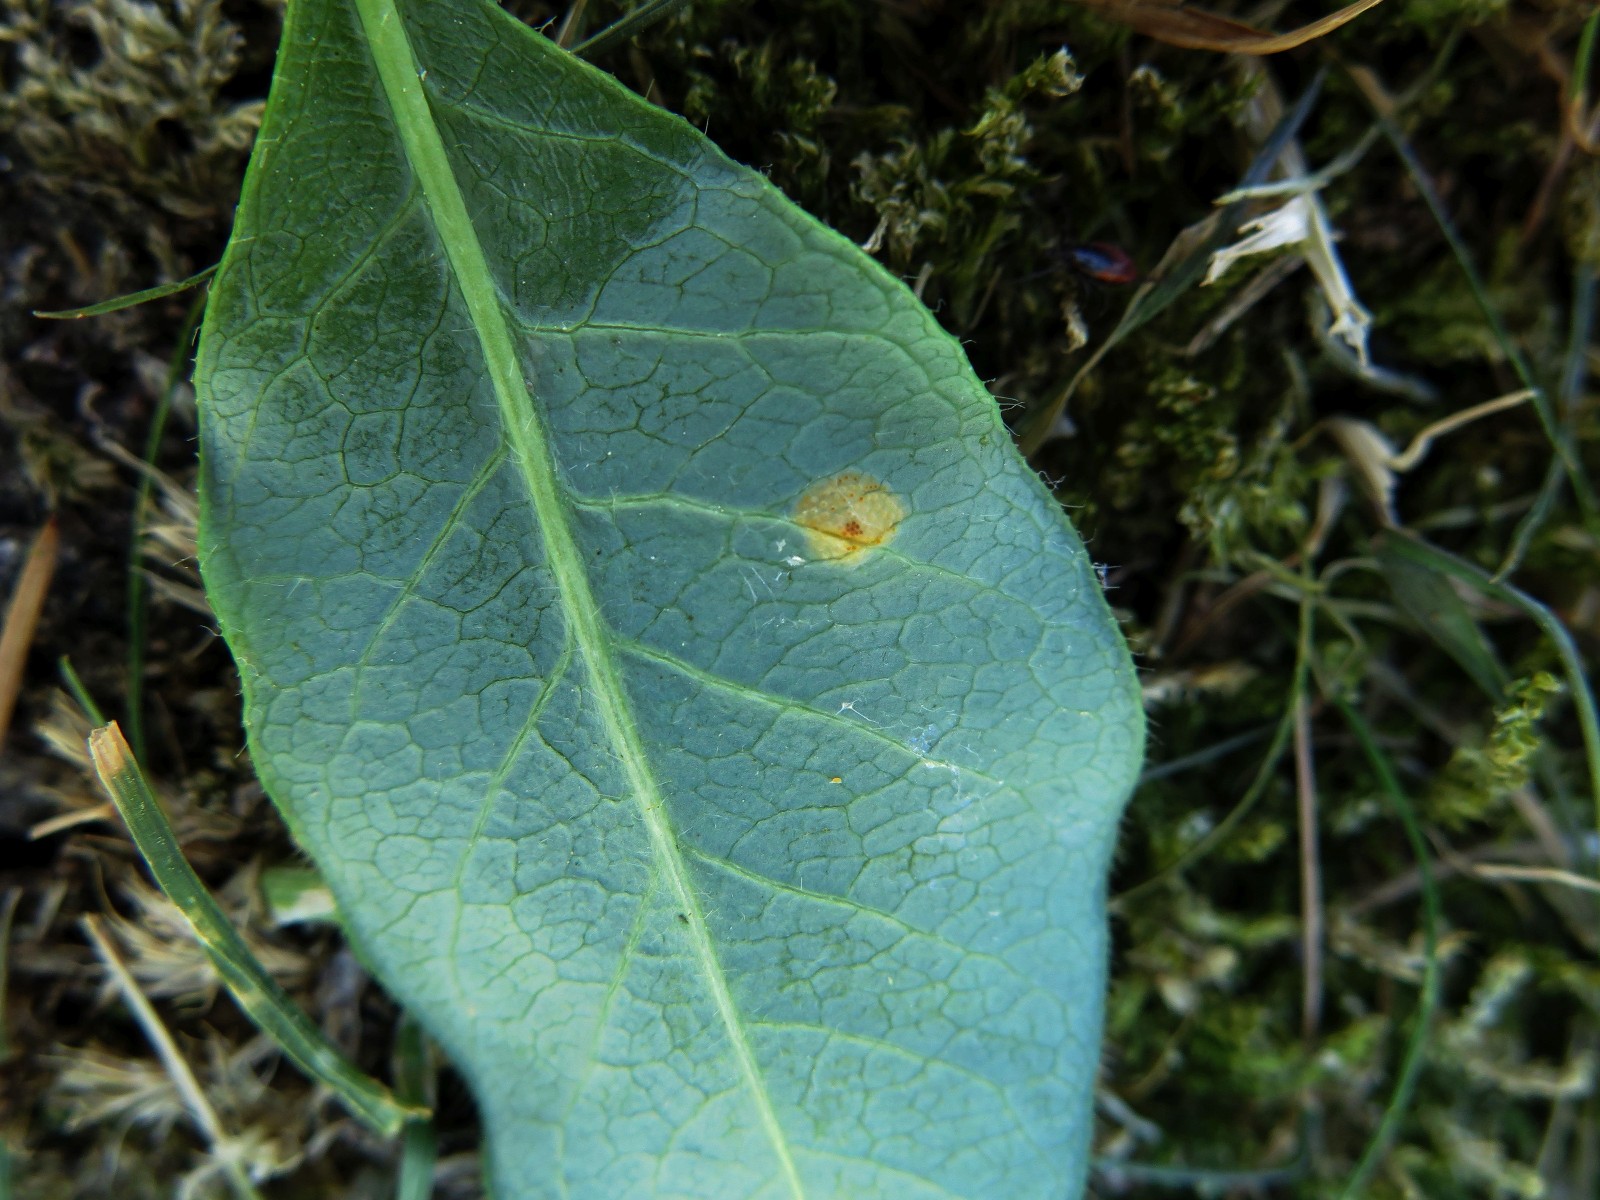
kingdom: Fungi
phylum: Basidiomycota
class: Pucciniomycetes
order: Pucciniales
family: Pucciniaceae
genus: Puccinia
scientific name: Puccinia festucae
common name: gedeblad-tvecellerust
